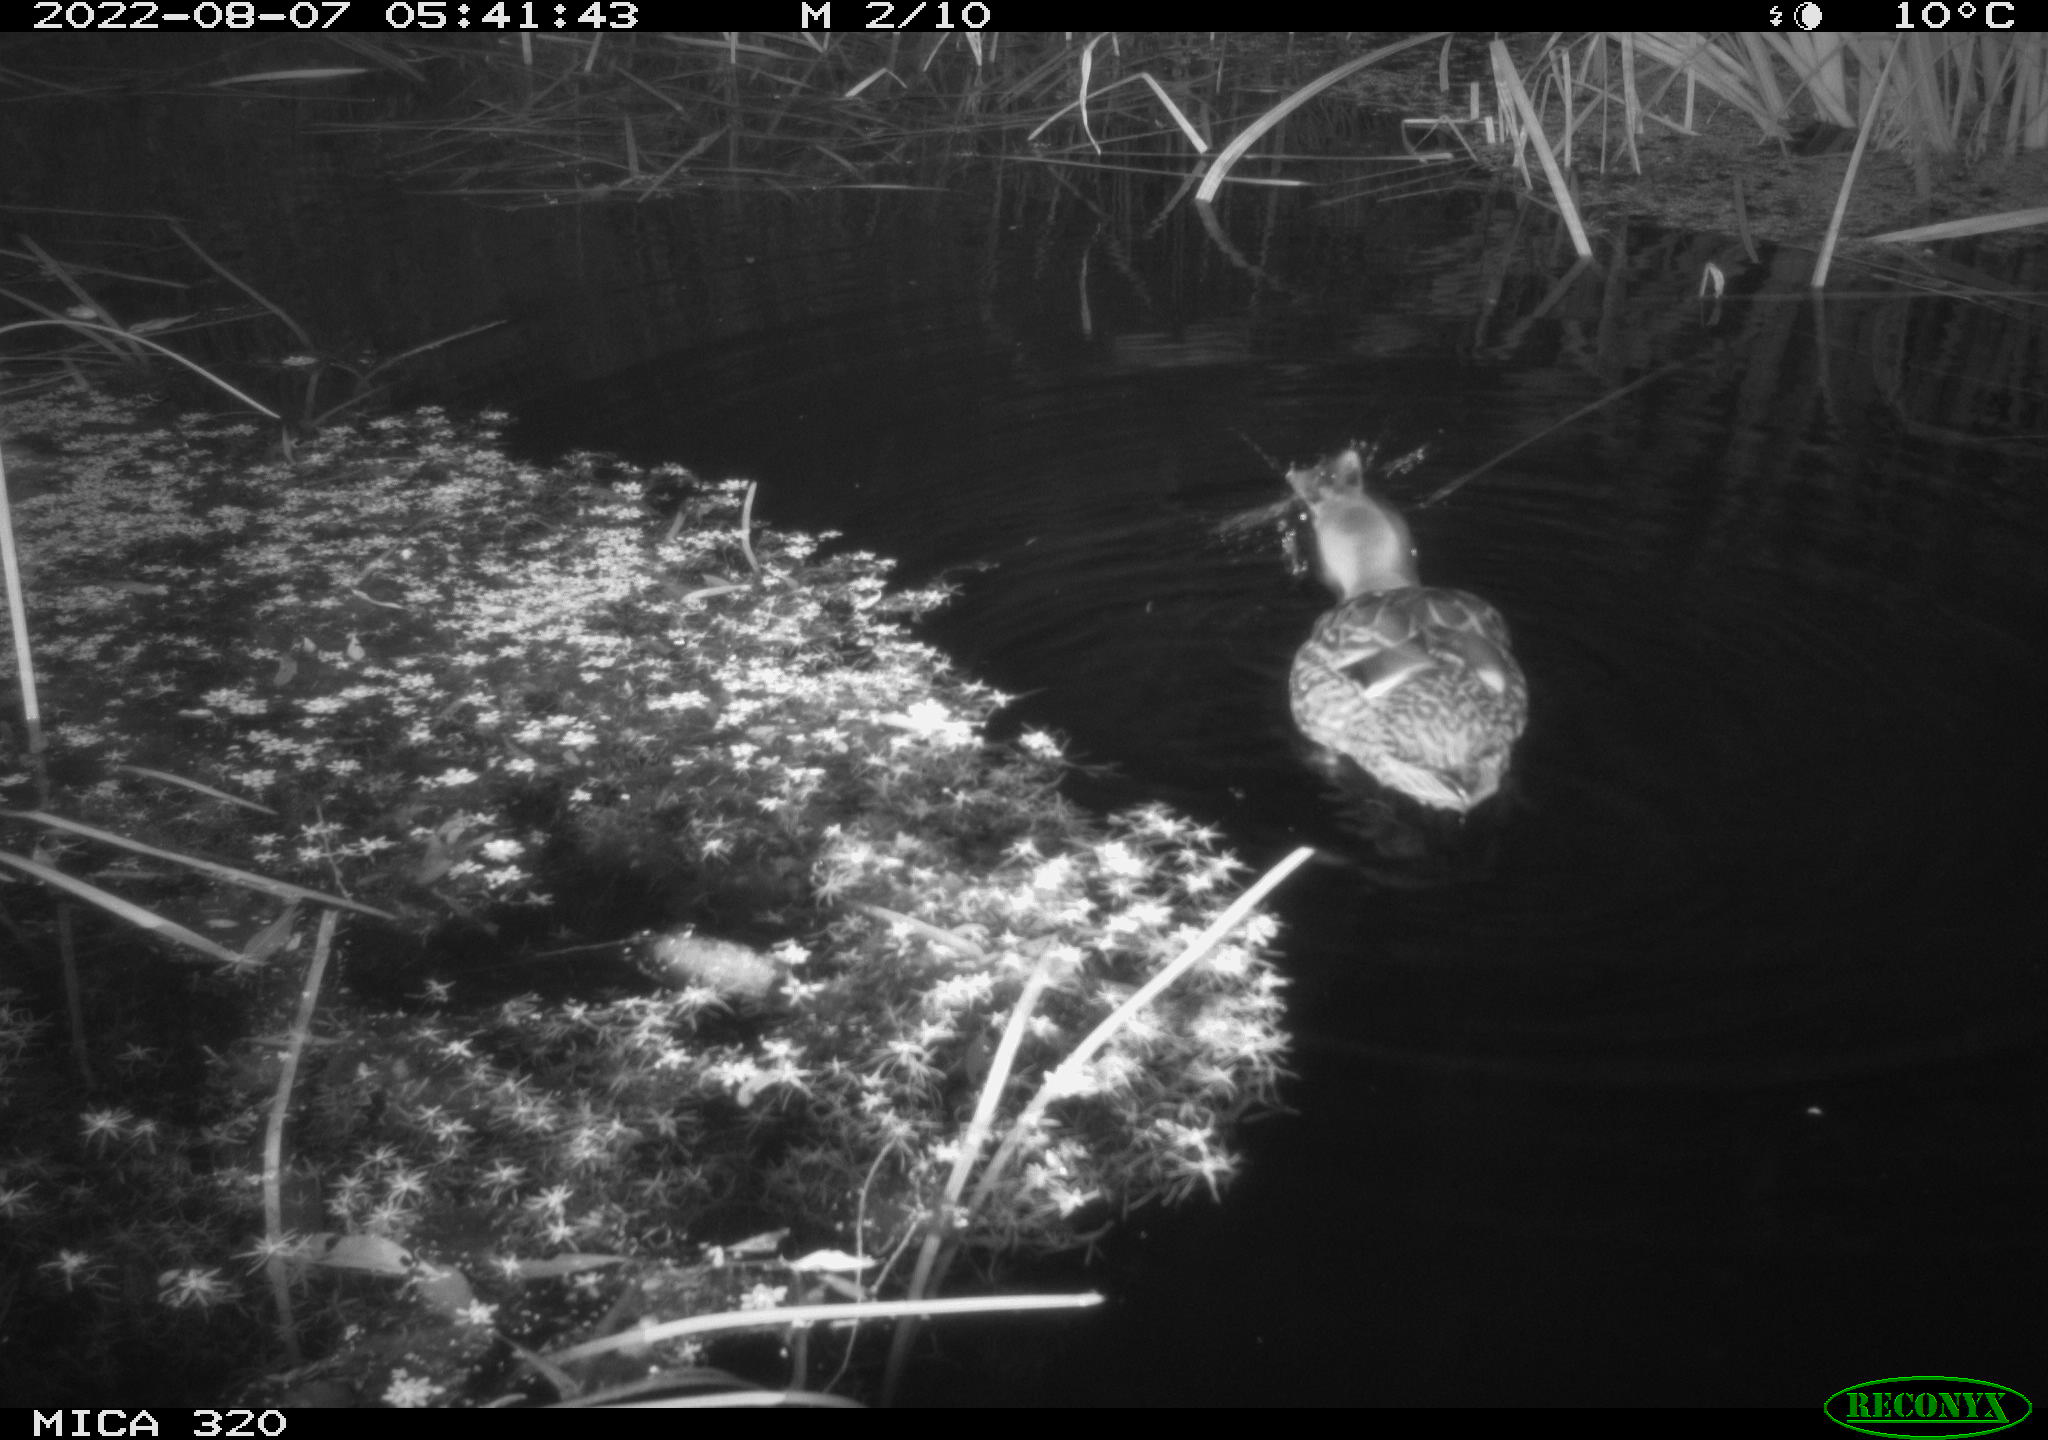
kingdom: Animalia
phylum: Chordata
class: Aves
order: Anseriformes
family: Anatidae
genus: Anas
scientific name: Anas platyrhynchos
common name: Mallard
